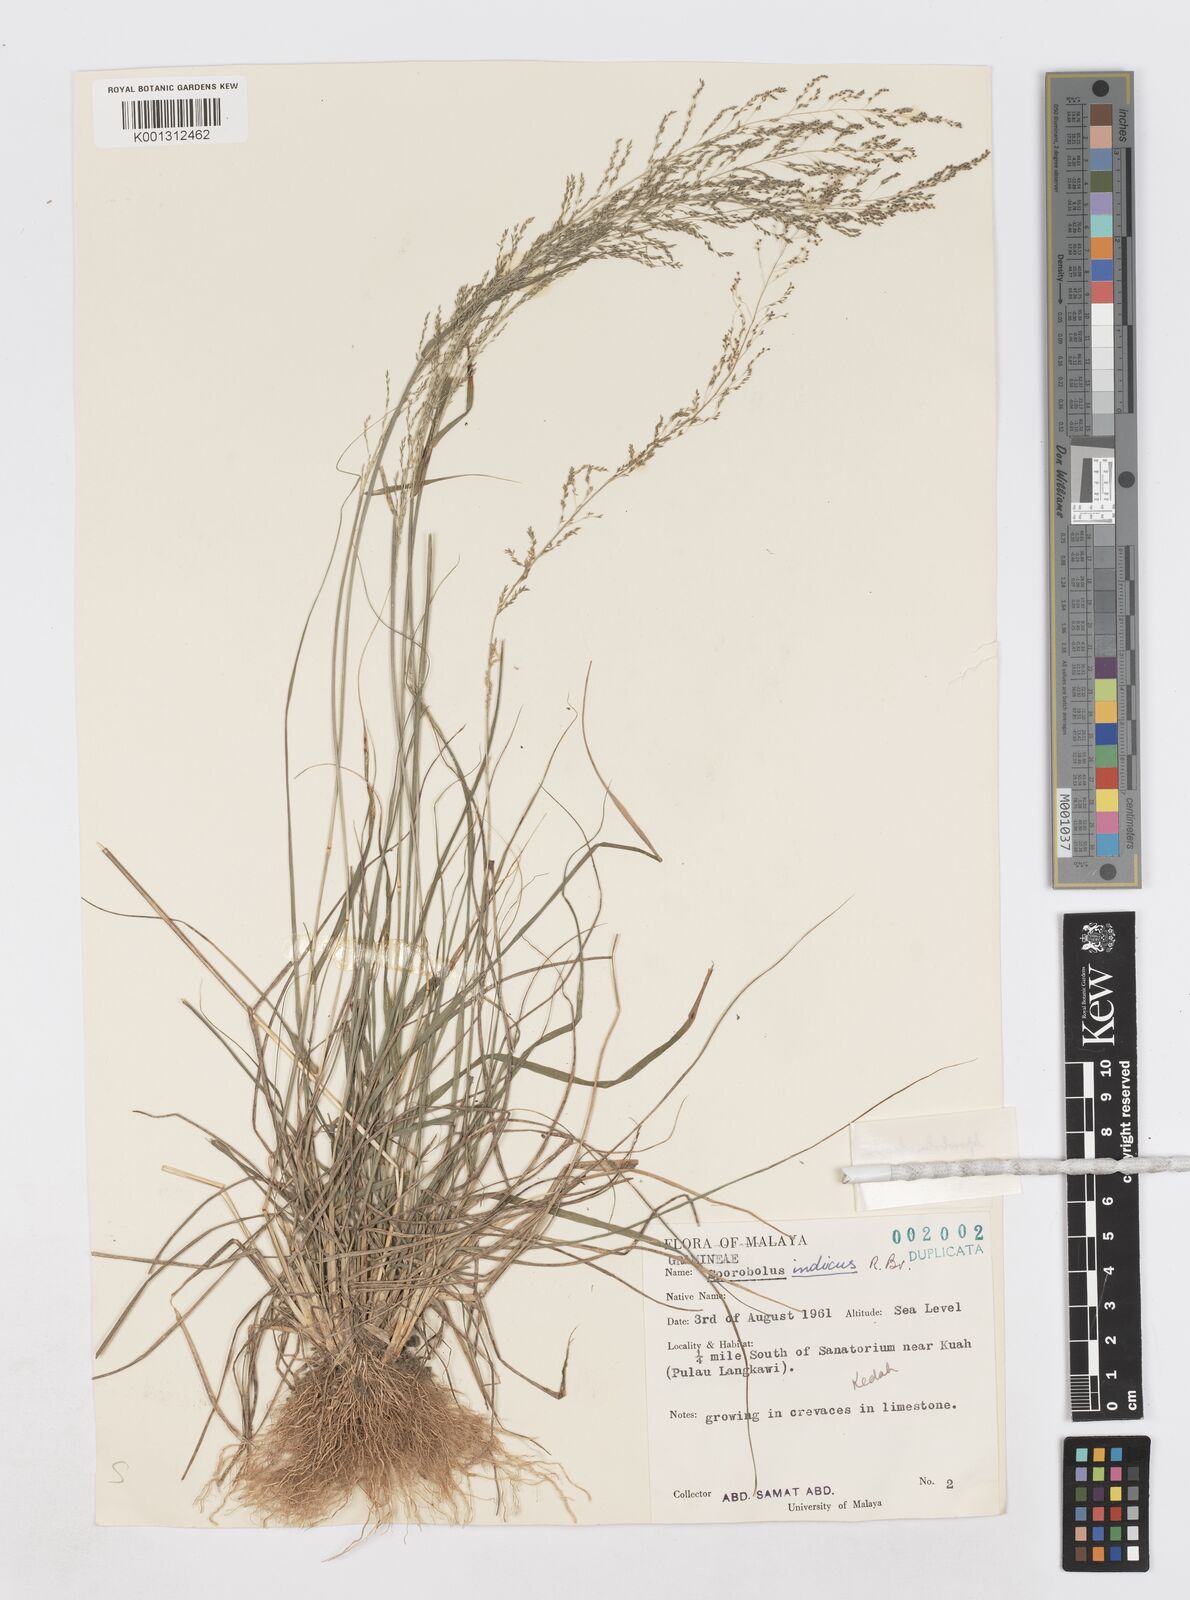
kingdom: Plantae
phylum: Tracheophyta
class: Liliopsida
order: Poales
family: Poaceae
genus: Sporobolus
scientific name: Sporobolus diandrus
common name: Tussock dropseed
